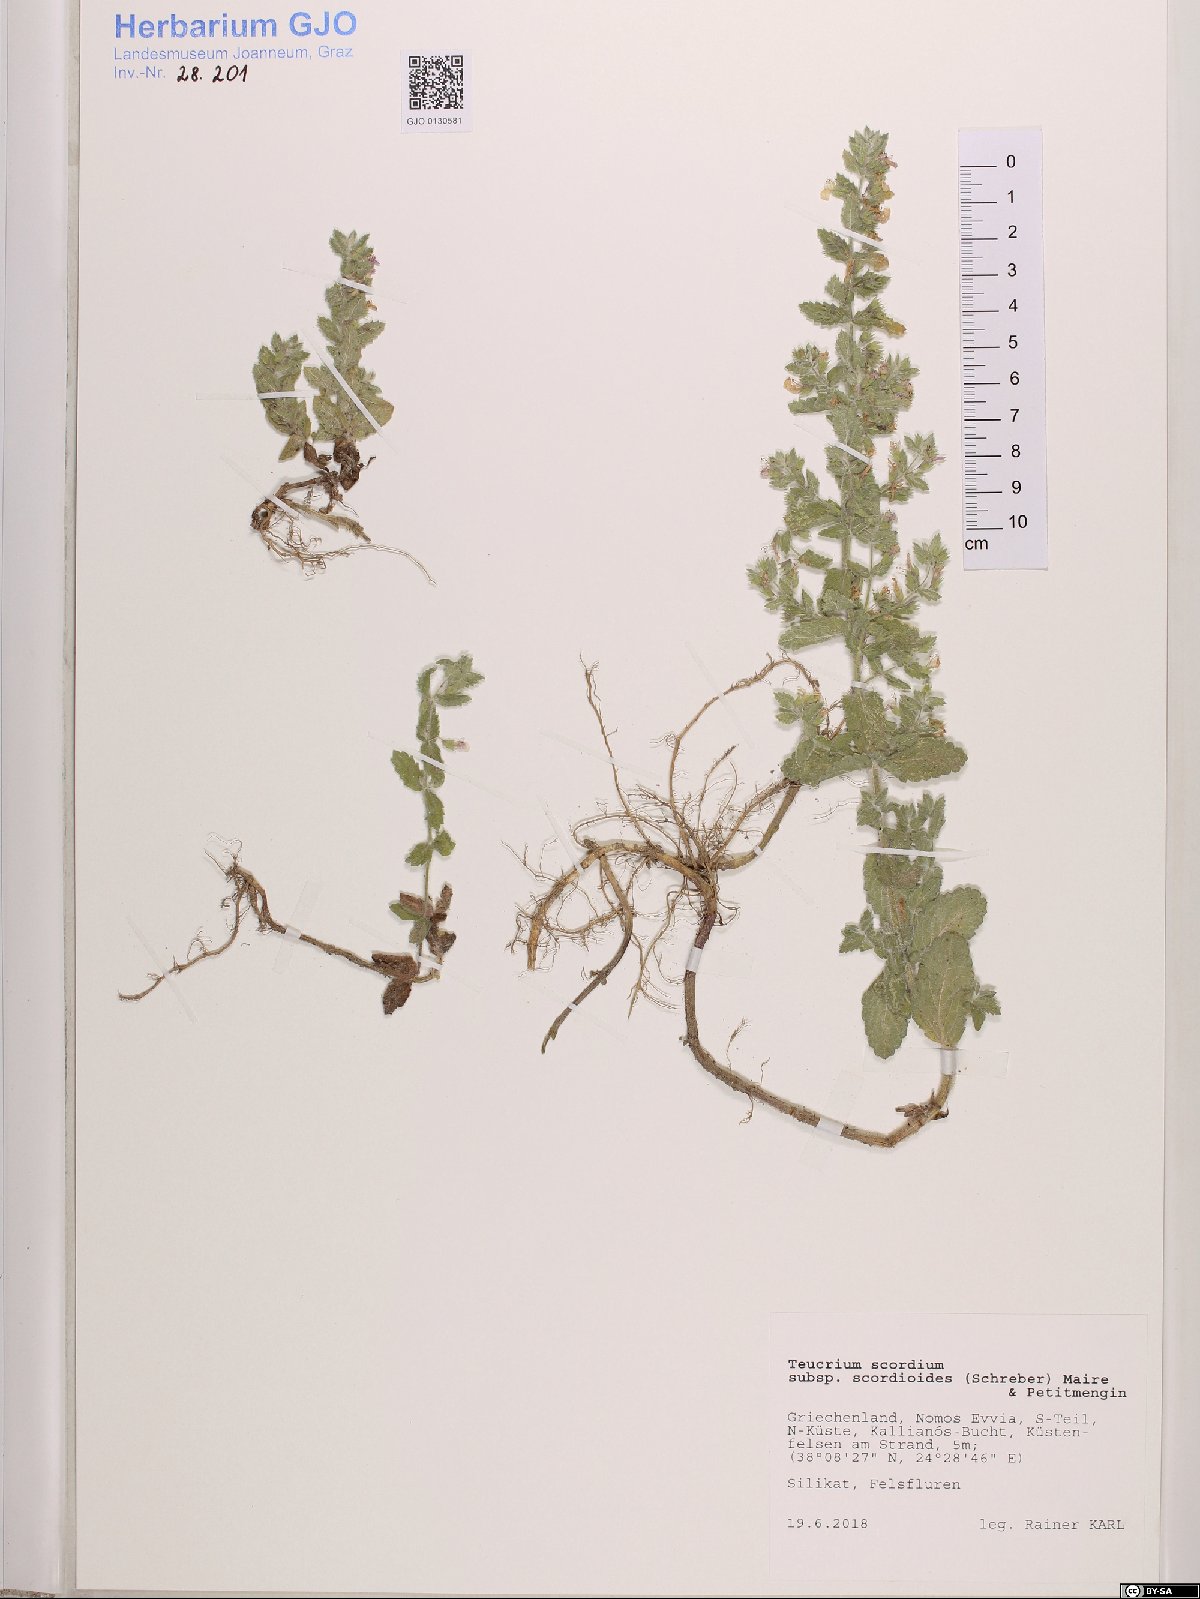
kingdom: Plantae
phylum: Tracheophyta
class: Magnoliopsida
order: Lamiales
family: Lamiaceae
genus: Teucrium
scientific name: Teucrium scordium
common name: Water germander
